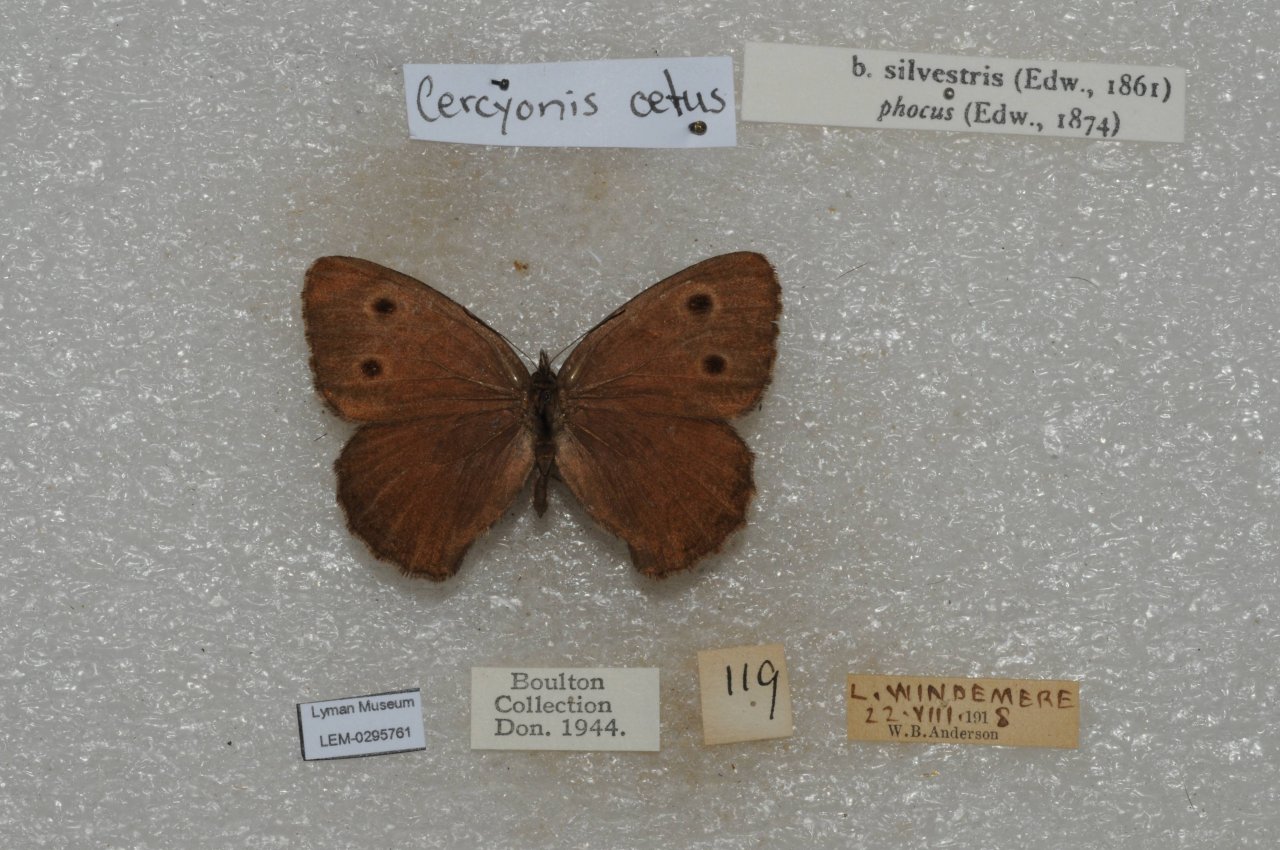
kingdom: Animalia
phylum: Arthropoda
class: Insecta
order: Lepidoptera
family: Nymphalidae
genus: Cercyonis
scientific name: Cercyonis oetus
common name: Small Wood-Nymph
